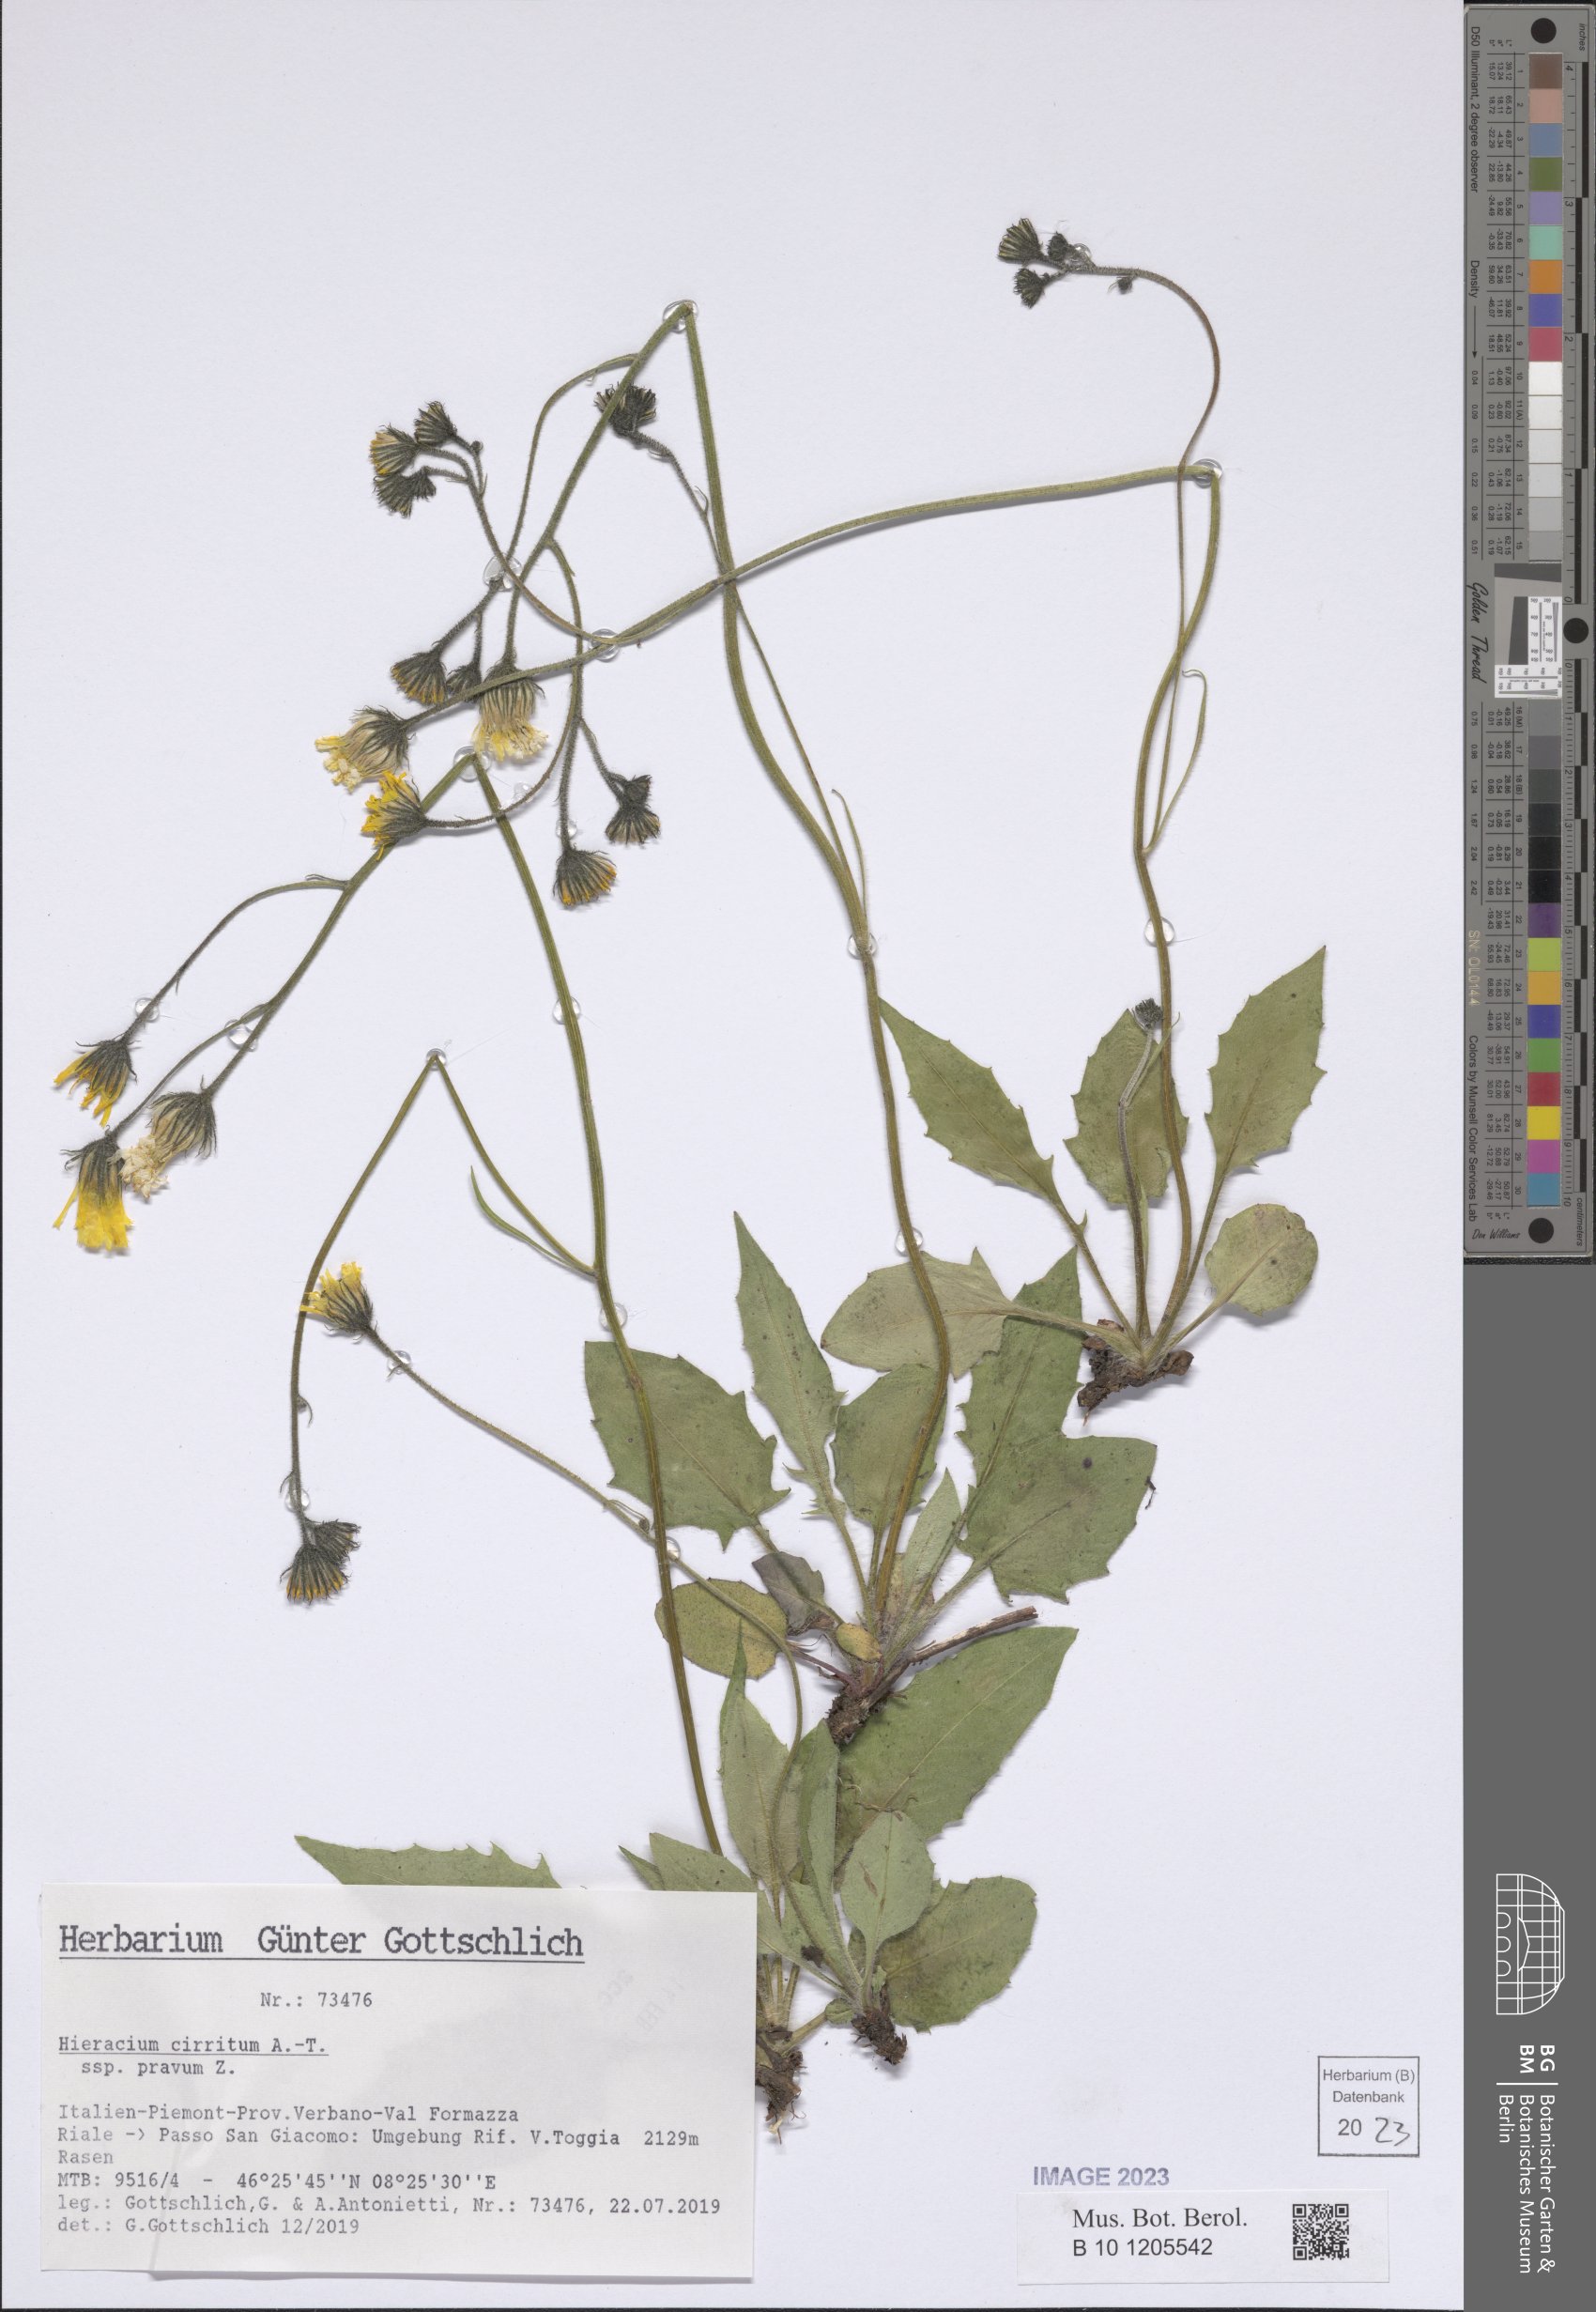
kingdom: Plantae
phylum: Tracheophyta
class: Magnoliopsida
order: Asterales
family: Asteraceae
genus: Hieracium
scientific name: Hieracium cirritum
